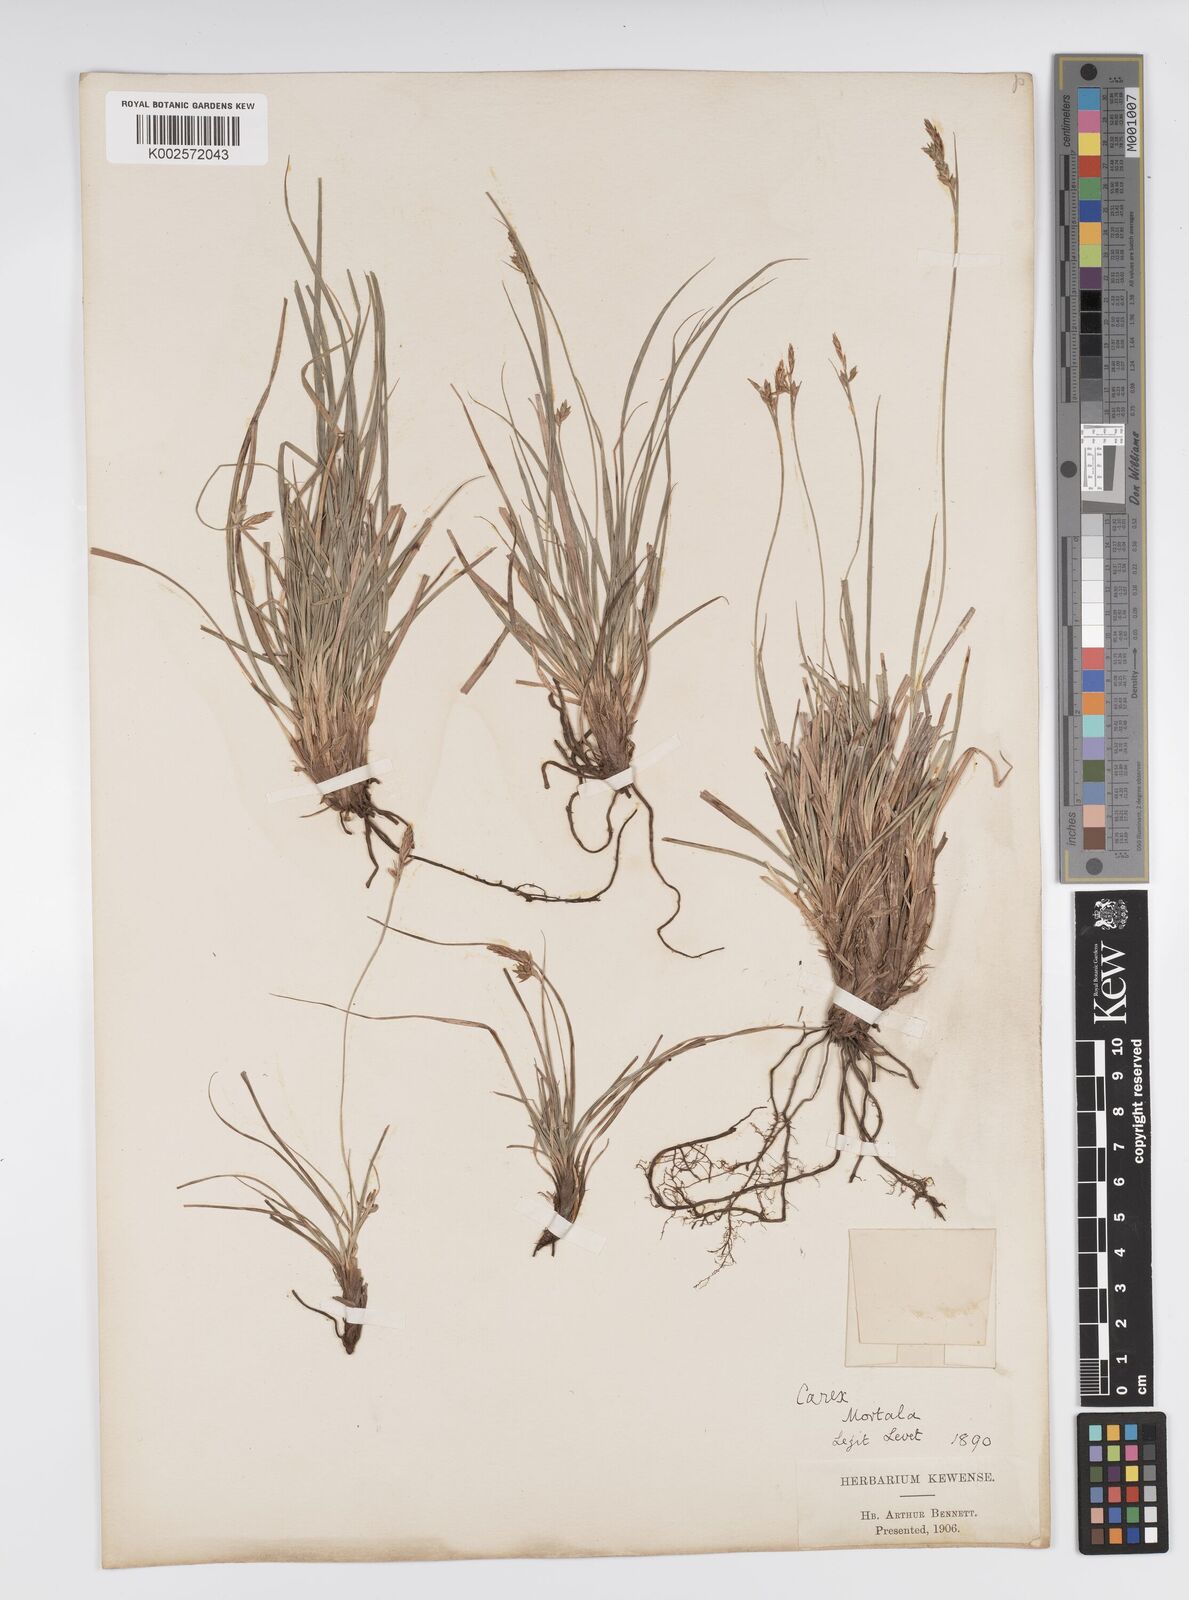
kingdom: Plantae
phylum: Tracheophyta
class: Liliopsida
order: Poales
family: Cyperaceae
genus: Carex
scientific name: Carex halleriana
